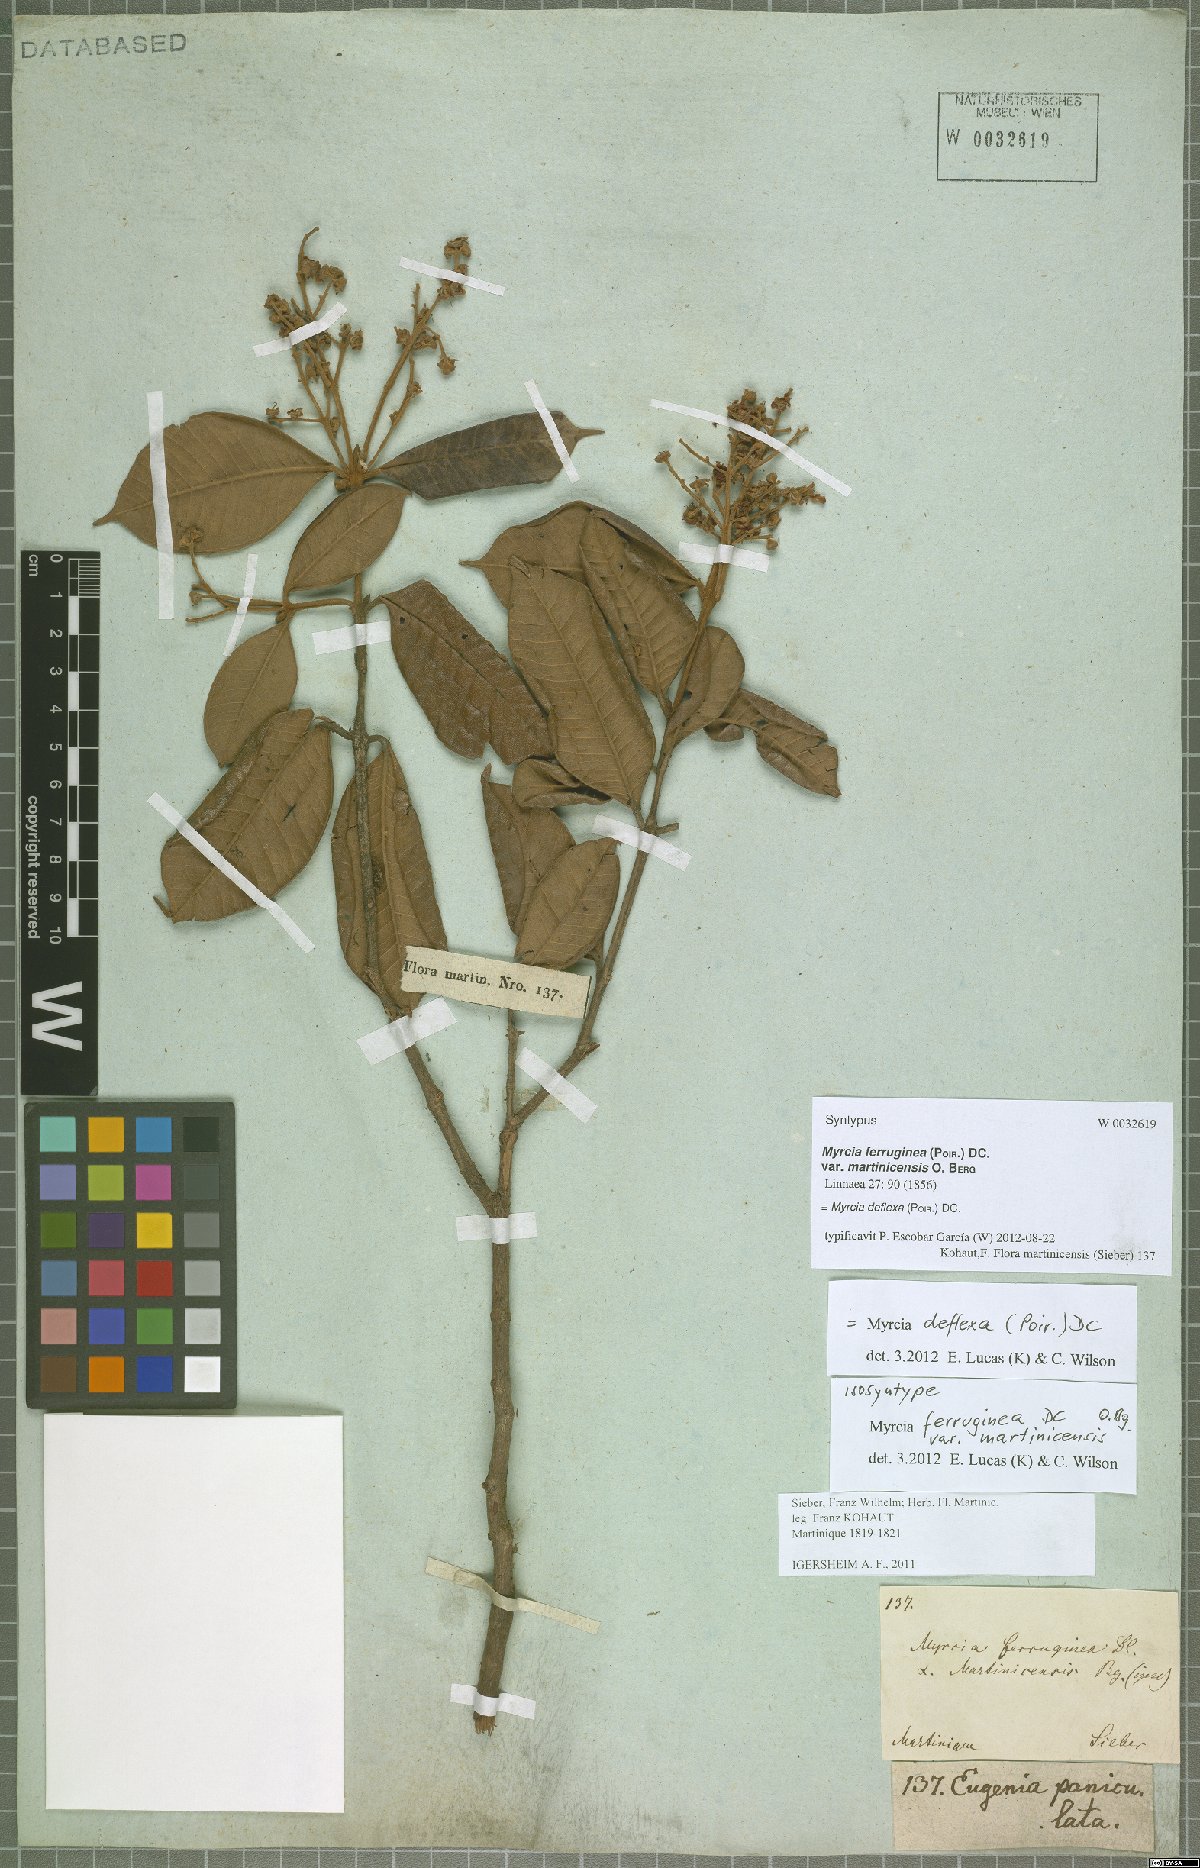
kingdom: Plantae
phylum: Tracheophyta
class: Magnoliopsida
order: Myrtales
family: Myrtaceae
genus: Myrcia
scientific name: Myrcia deflexa
